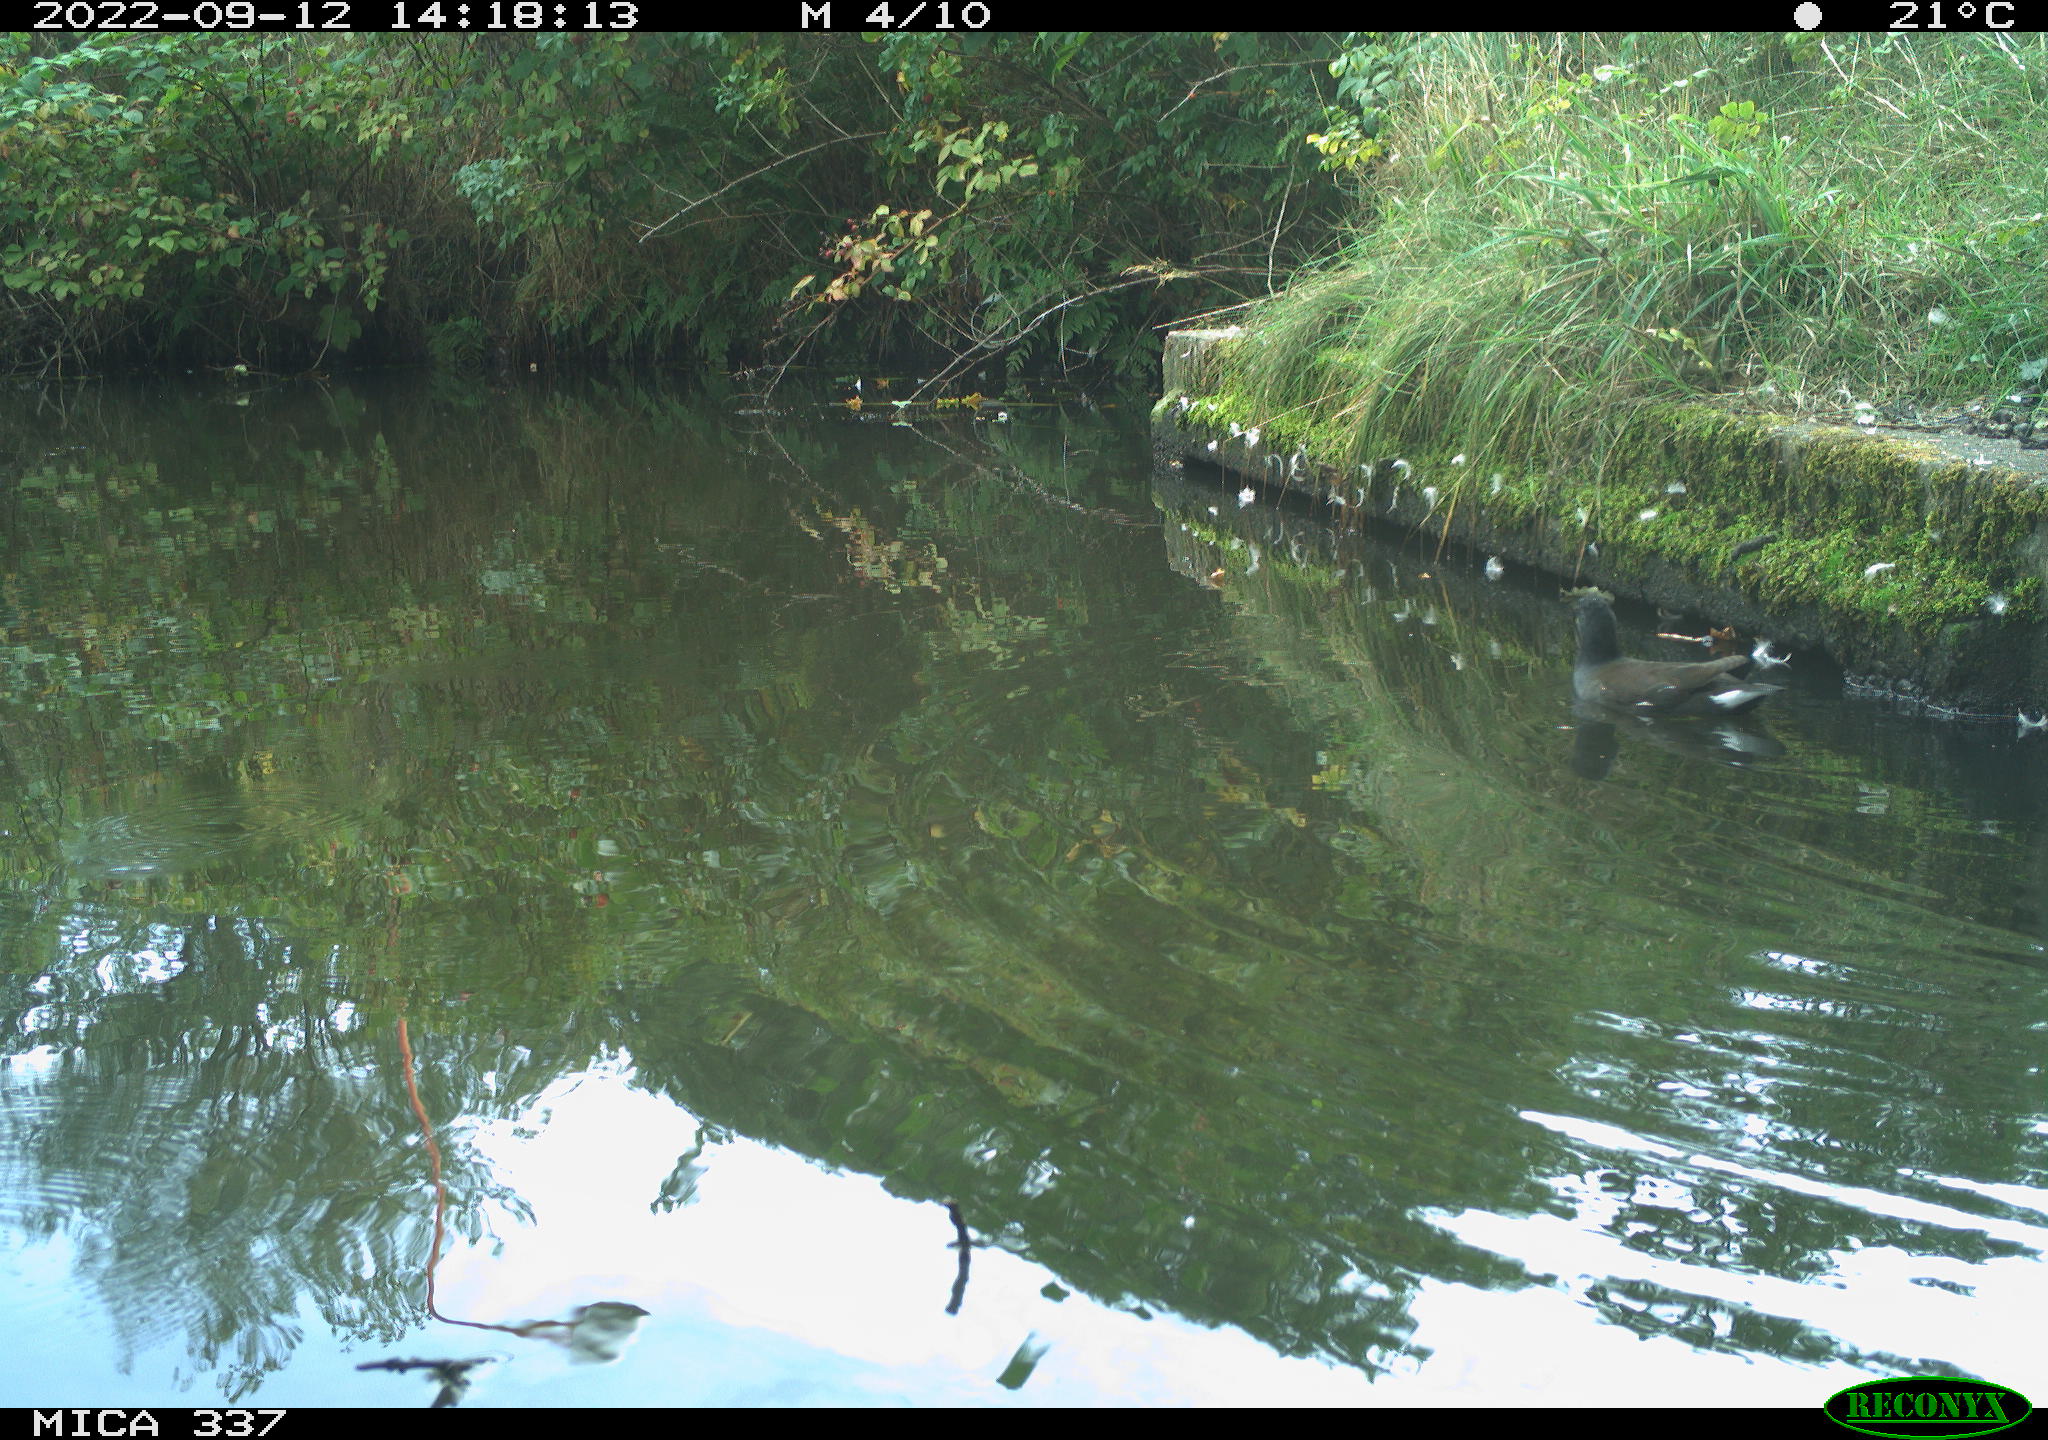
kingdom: Animalia
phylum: Chordata
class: Aves
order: Gruiformes
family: Rallidae
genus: Gallinula
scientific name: Gallinula chloropus
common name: Common moorhen
